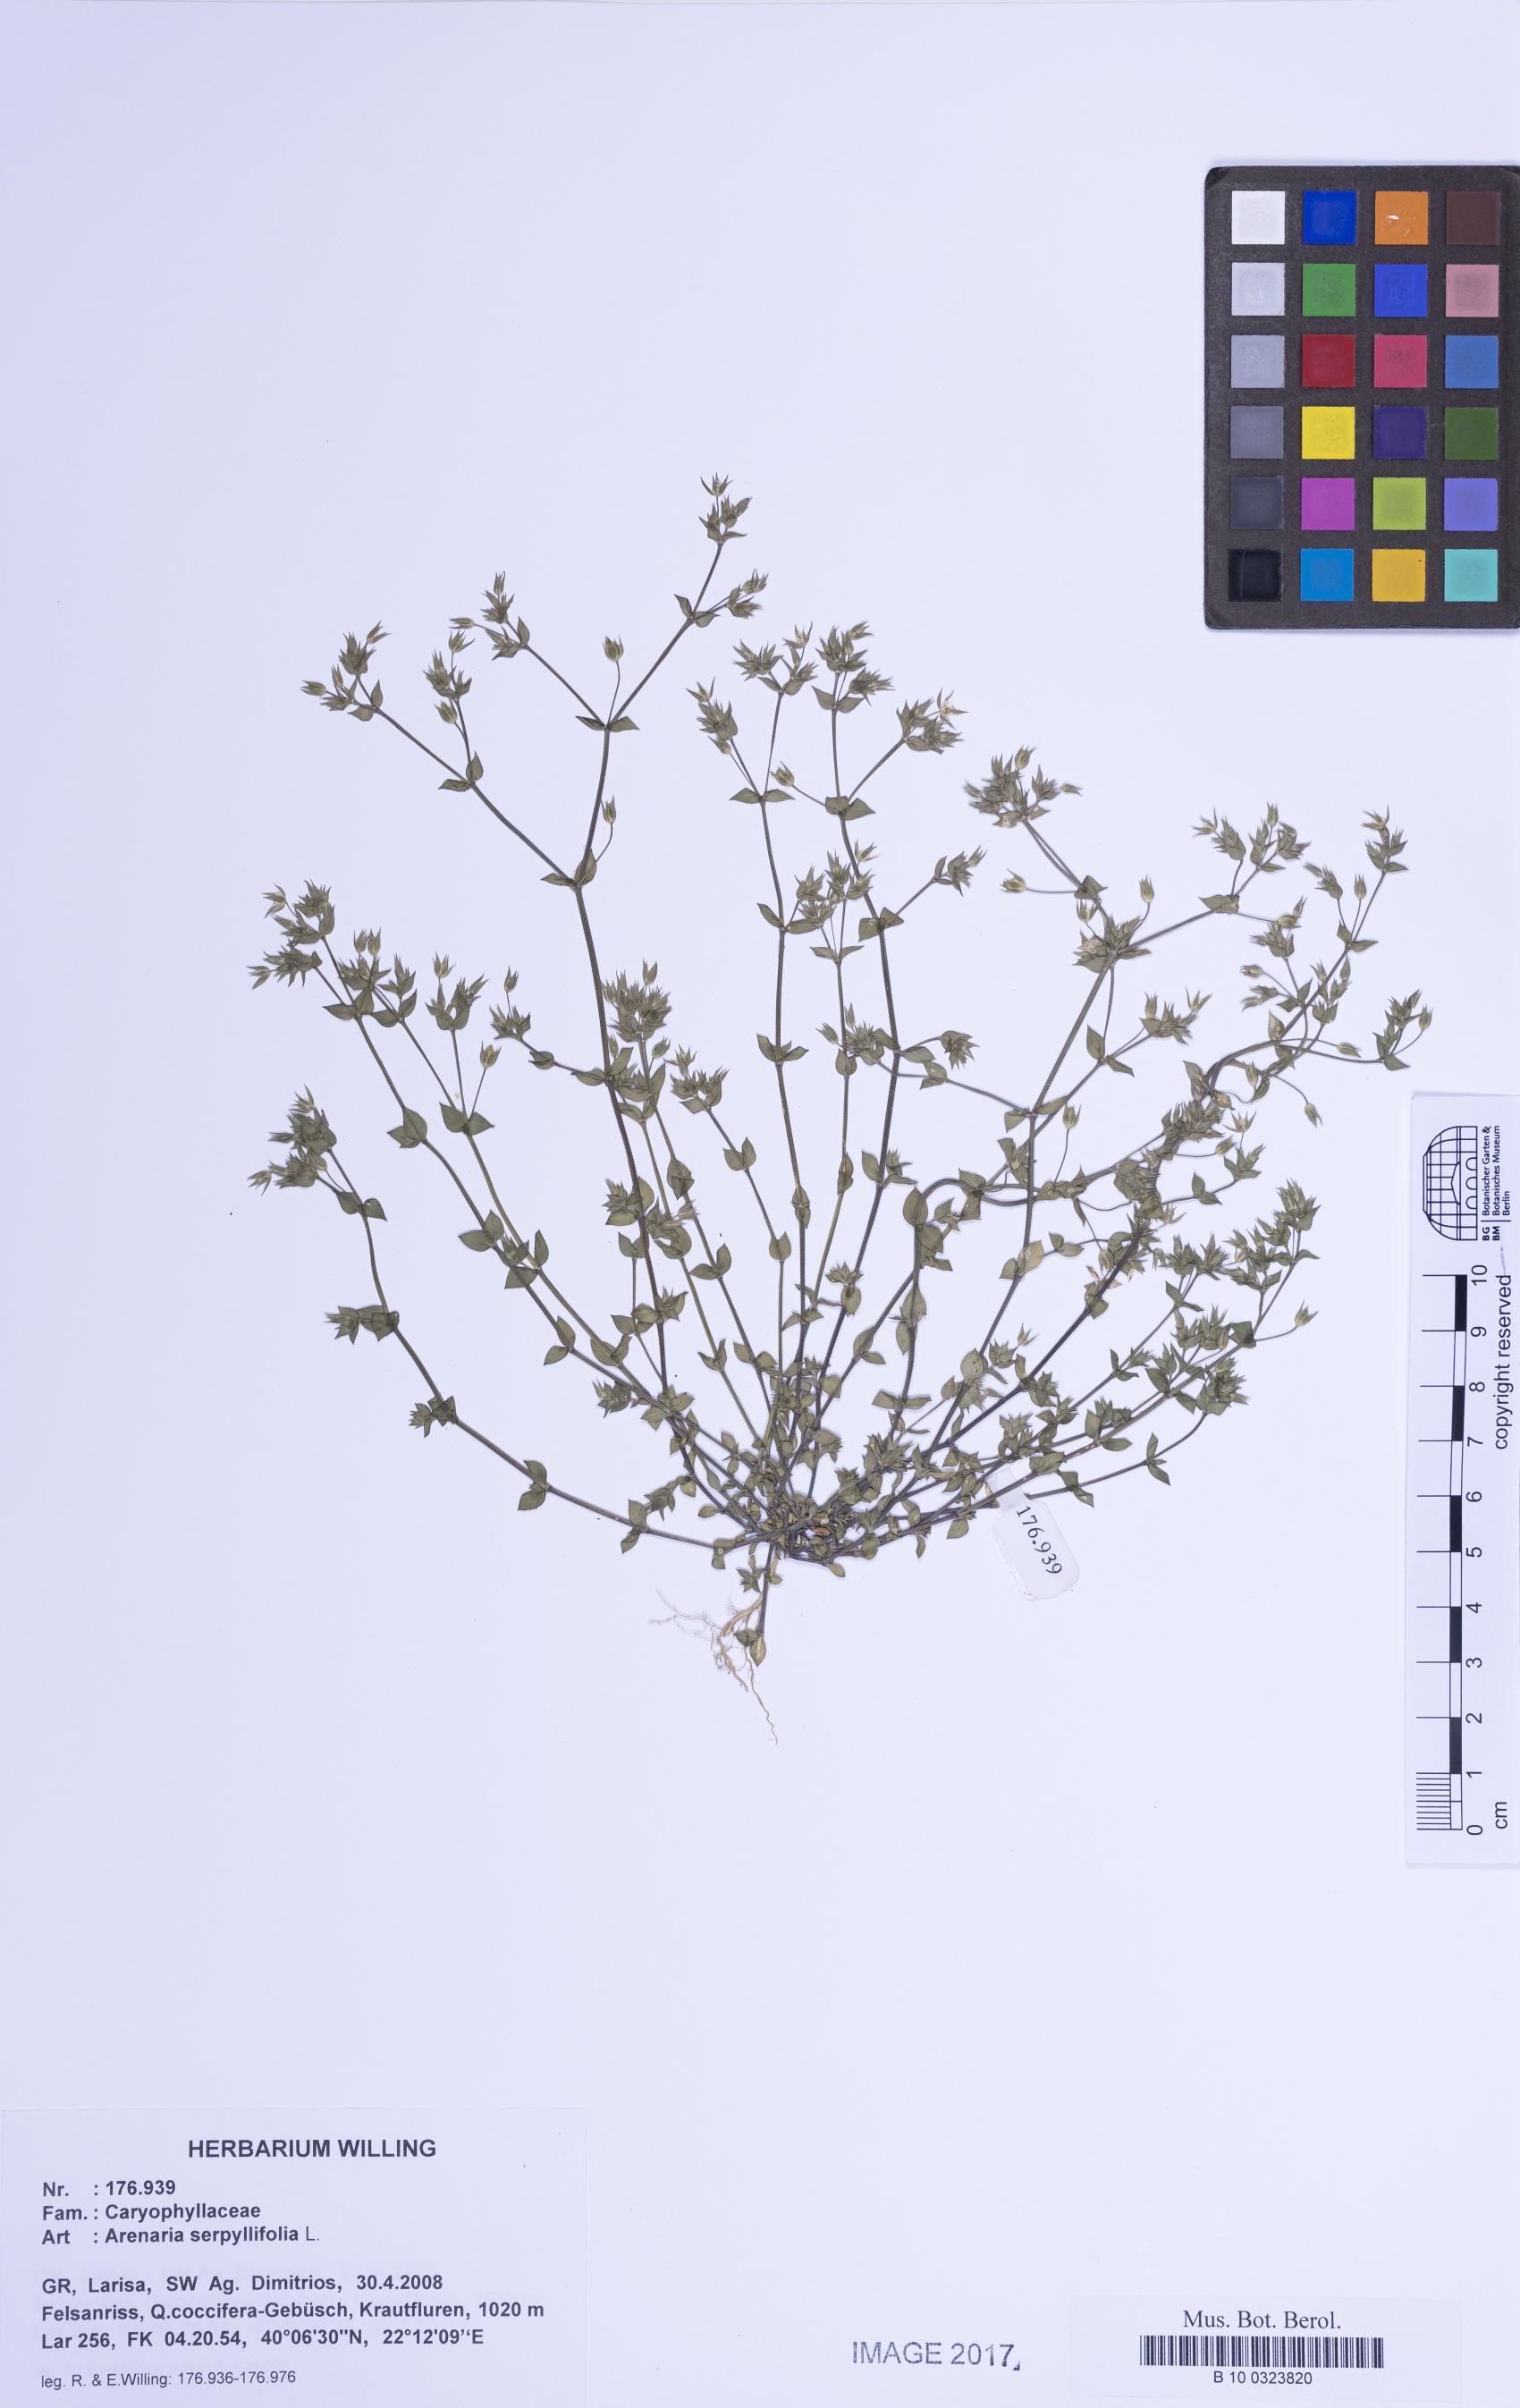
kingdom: Plantae
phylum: Tracheophyta
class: Magnoliopsida
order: Caryophyllales
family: Caryophyllaceae
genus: Arenaria
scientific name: Arenaria serpyllifolia
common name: Thyme-leaved sandwort
